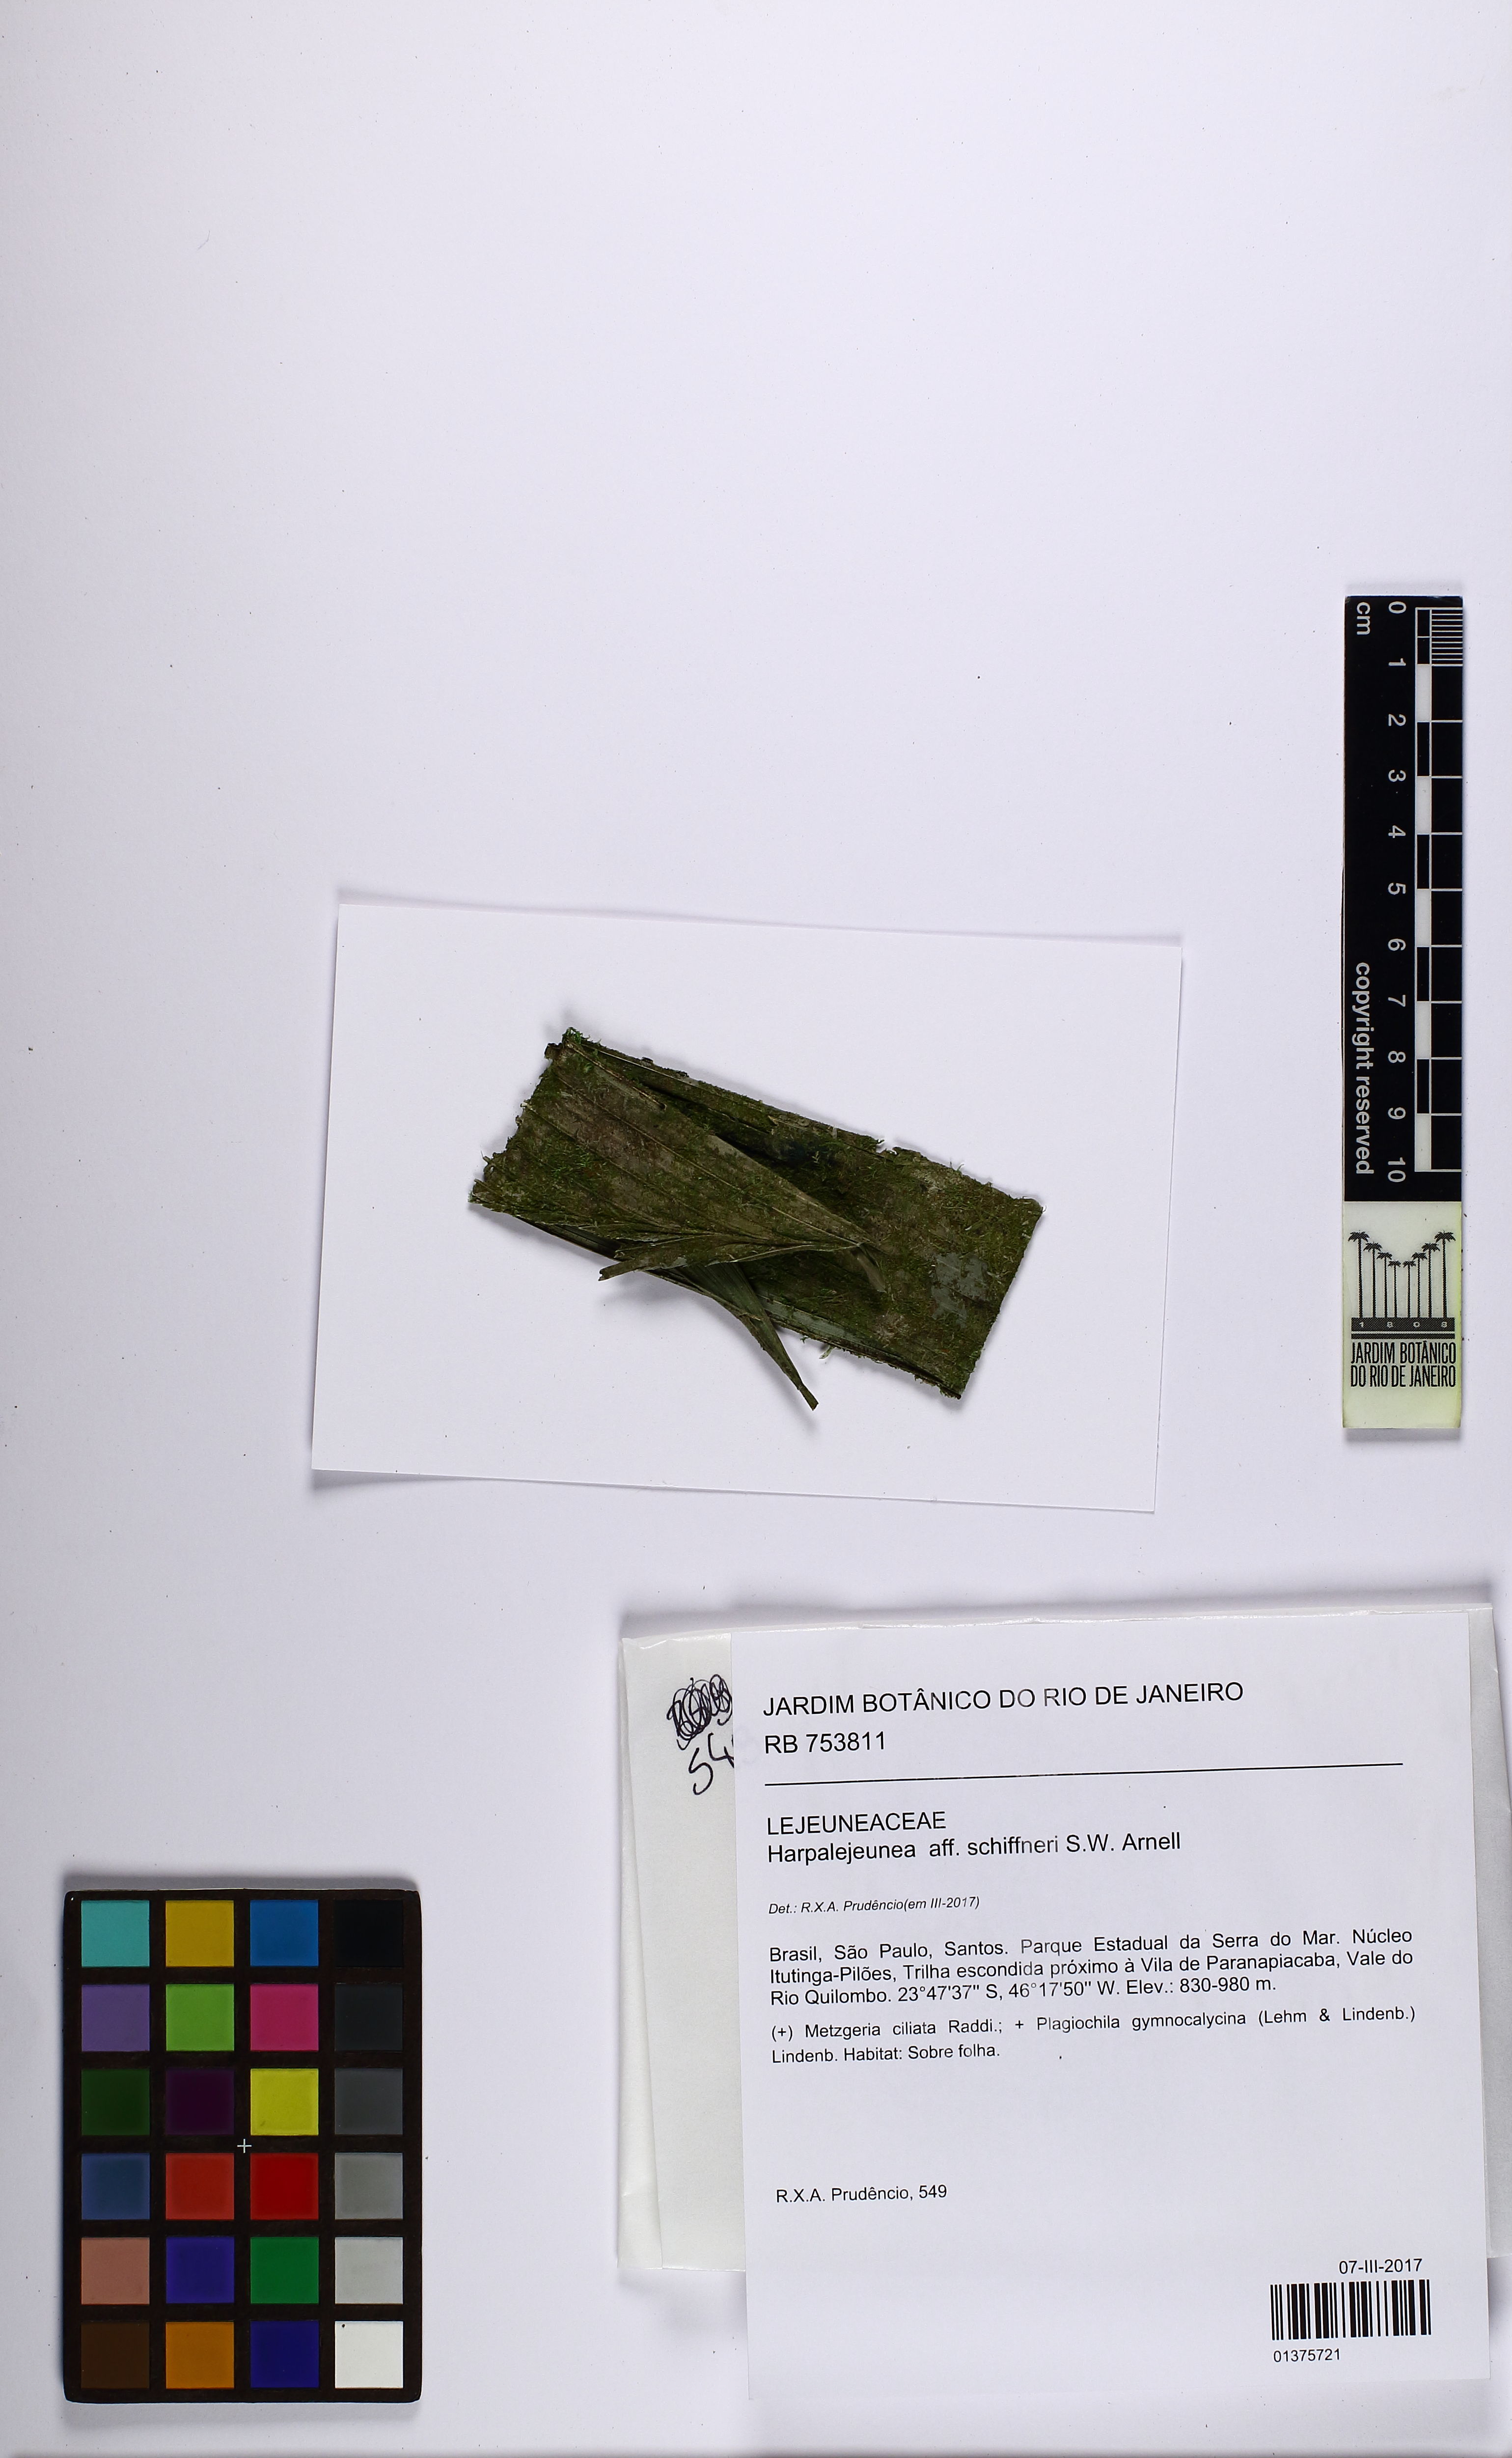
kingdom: Plantae
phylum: Marchantiophyta
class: Jungermanniopsida
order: Porellales
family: Lejeuneaceae
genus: Harpalejeunea
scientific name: Harpalejeunea schiffneri
